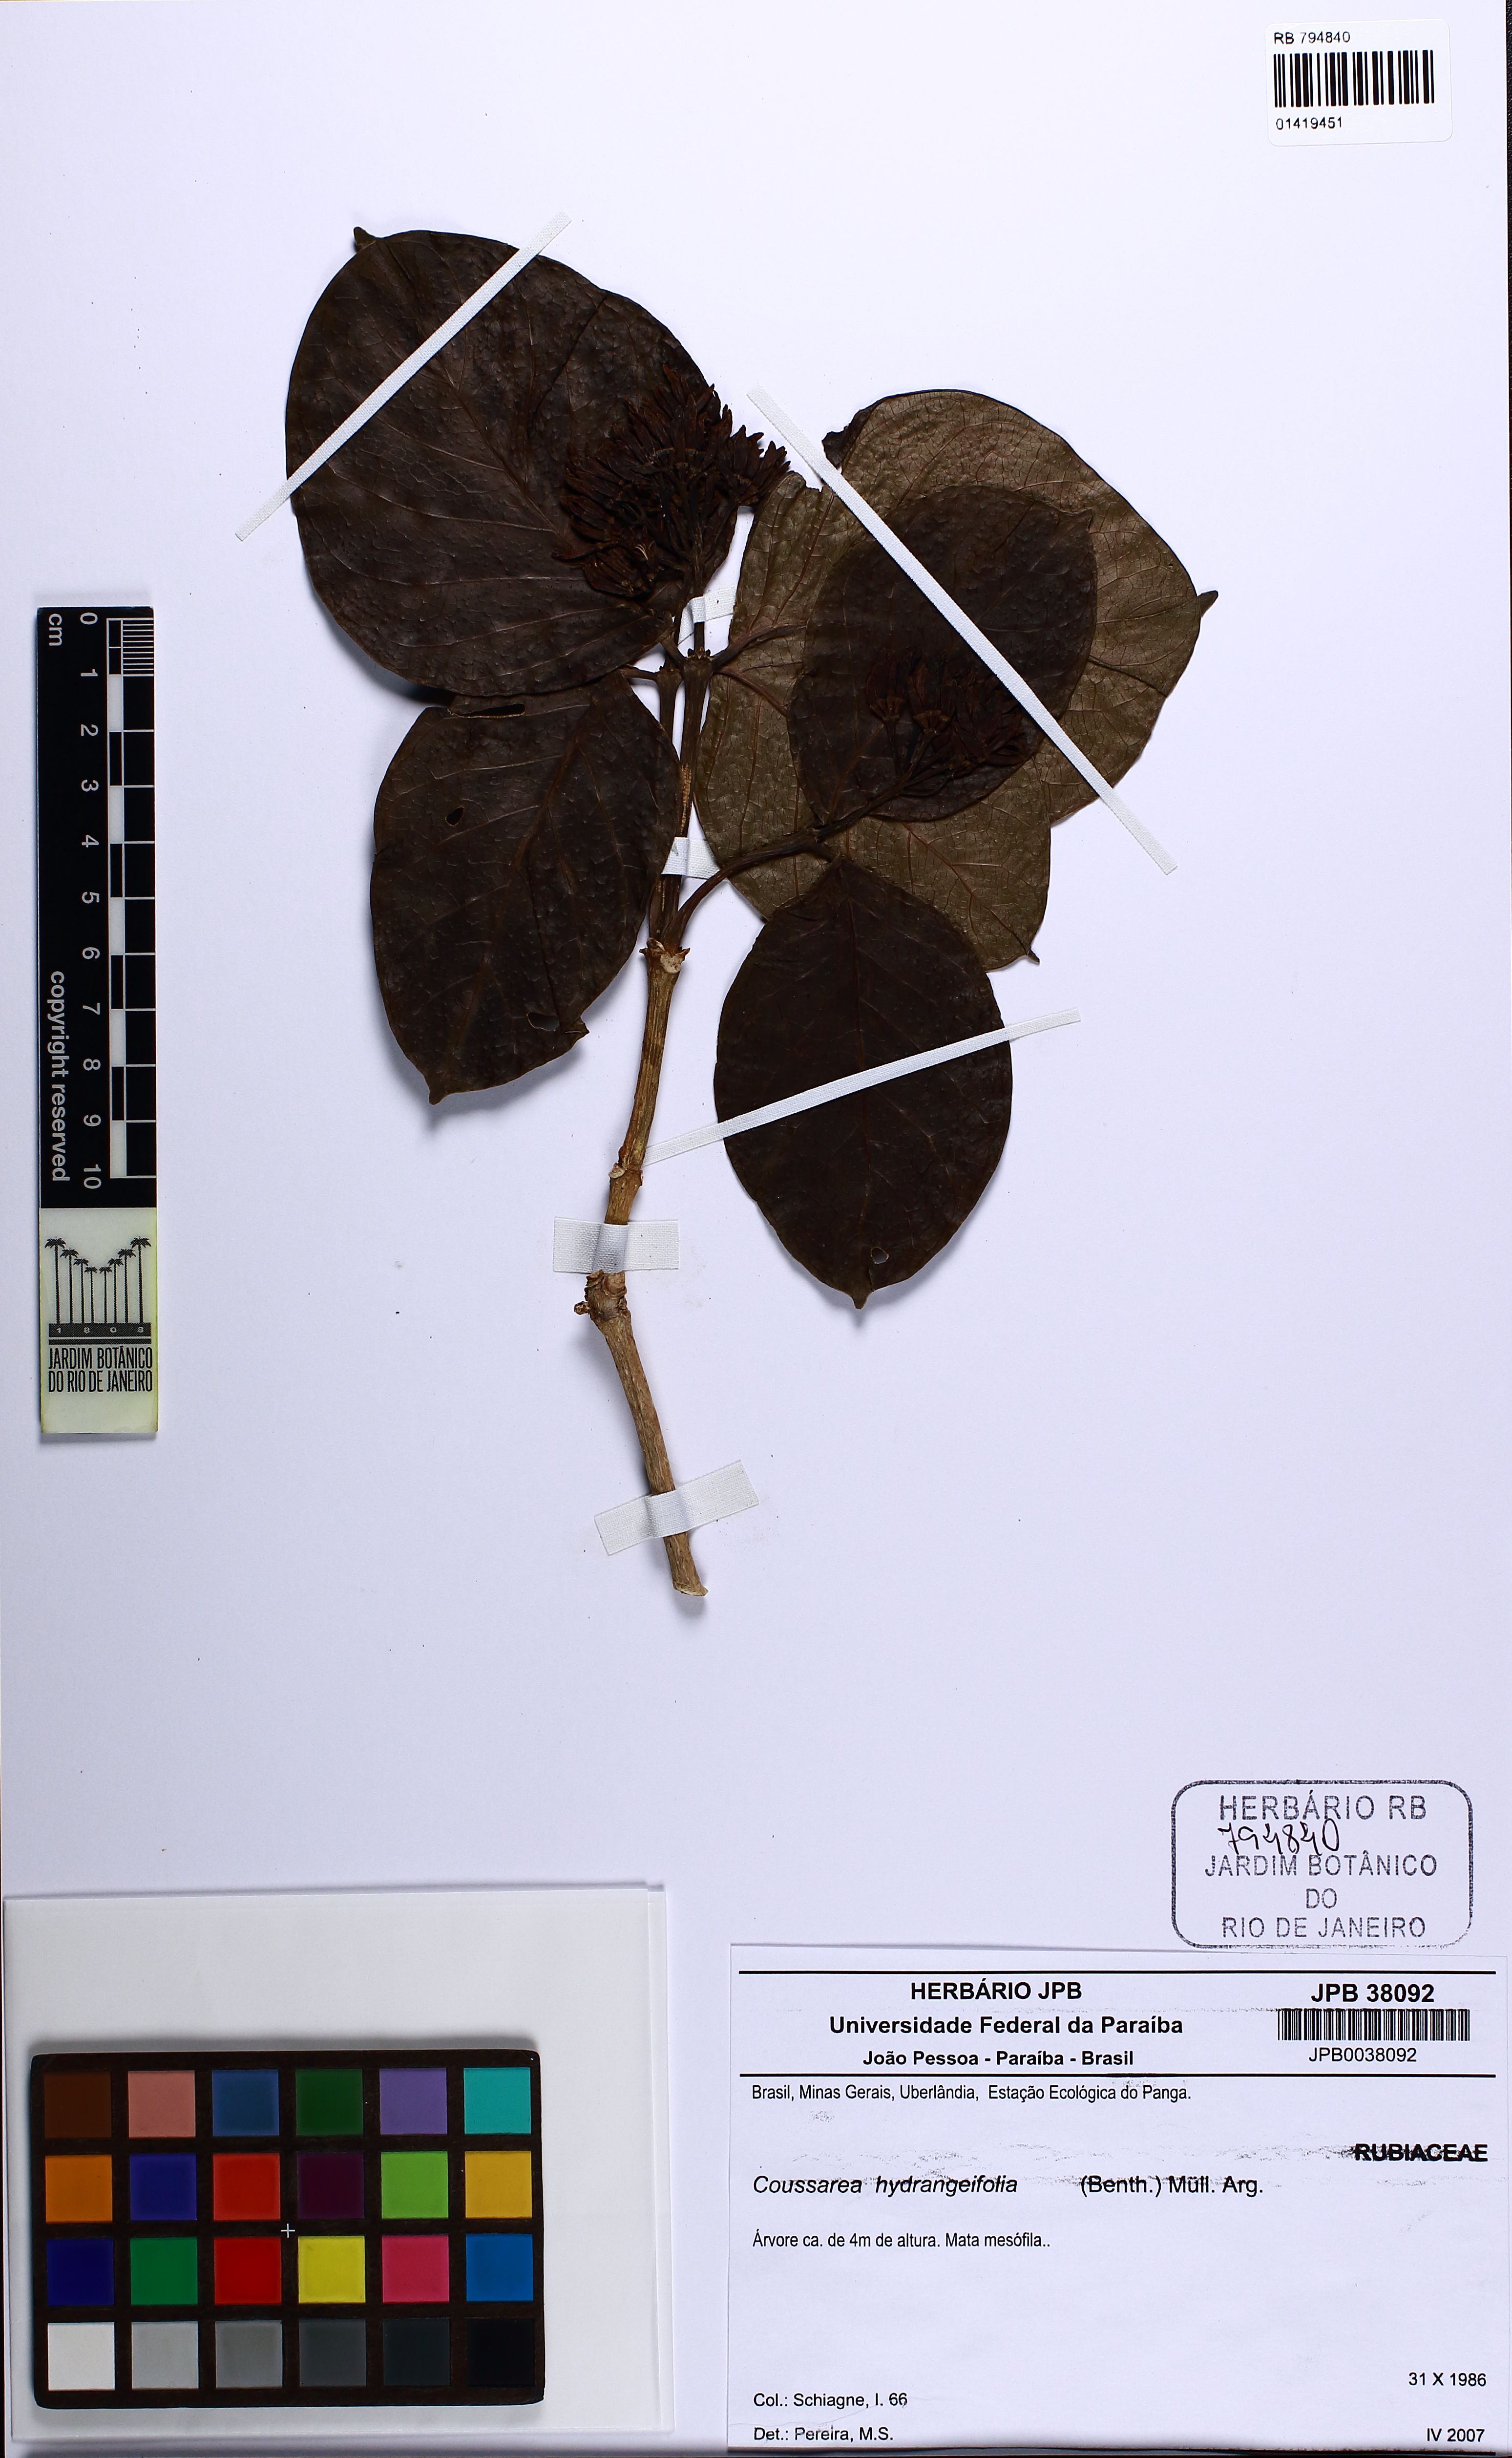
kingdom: Plantae
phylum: Tracheophyta
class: Magnoliopsida
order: Gentianales
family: Rubiaceae
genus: Coussarea
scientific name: Coussarea hydrangeifolia
